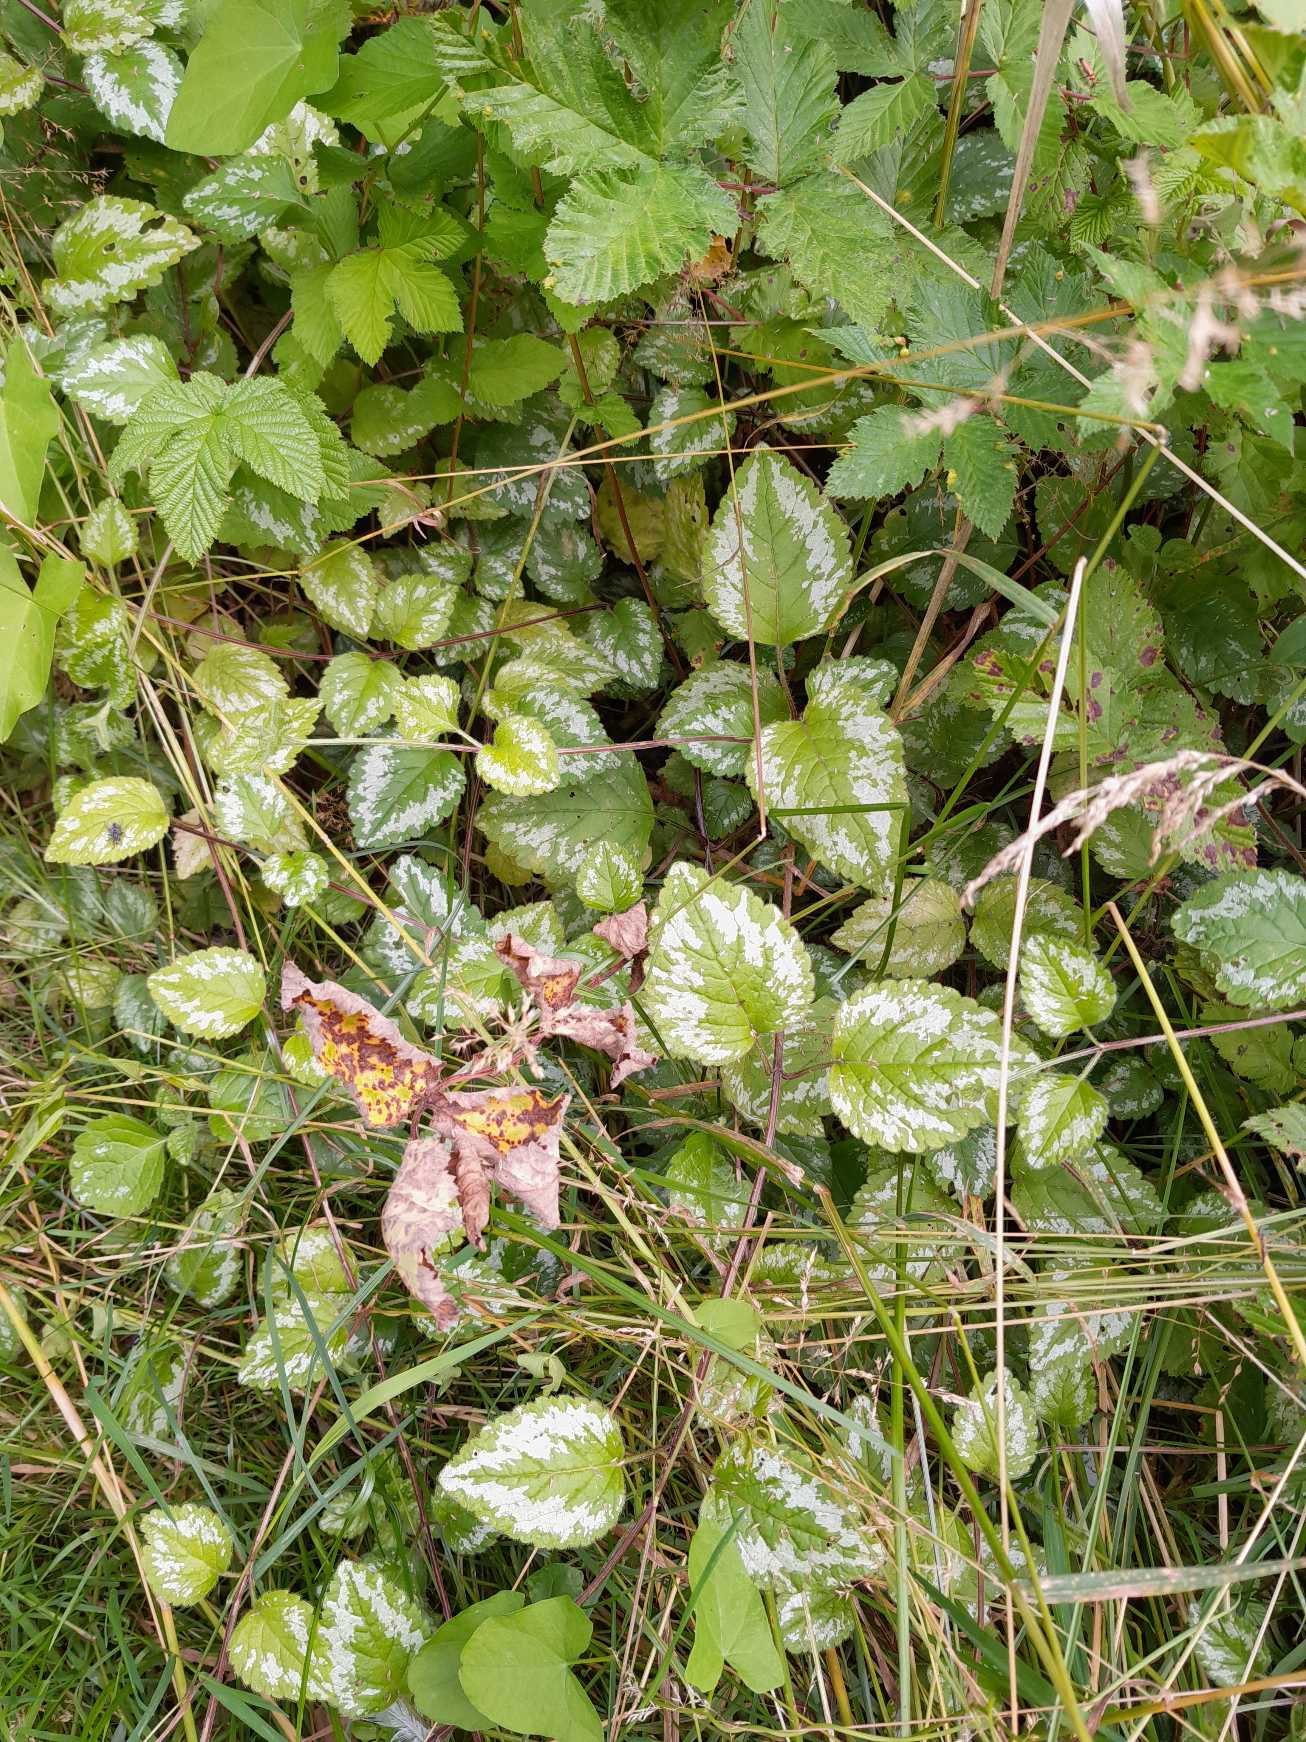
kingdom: Plantae
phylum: Tracheophyta
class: Magnoliopsida
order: Lamiales
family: Lamiaceae
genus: Lamium
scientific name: Lamium galeobdolon
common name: Have-guldnælde
